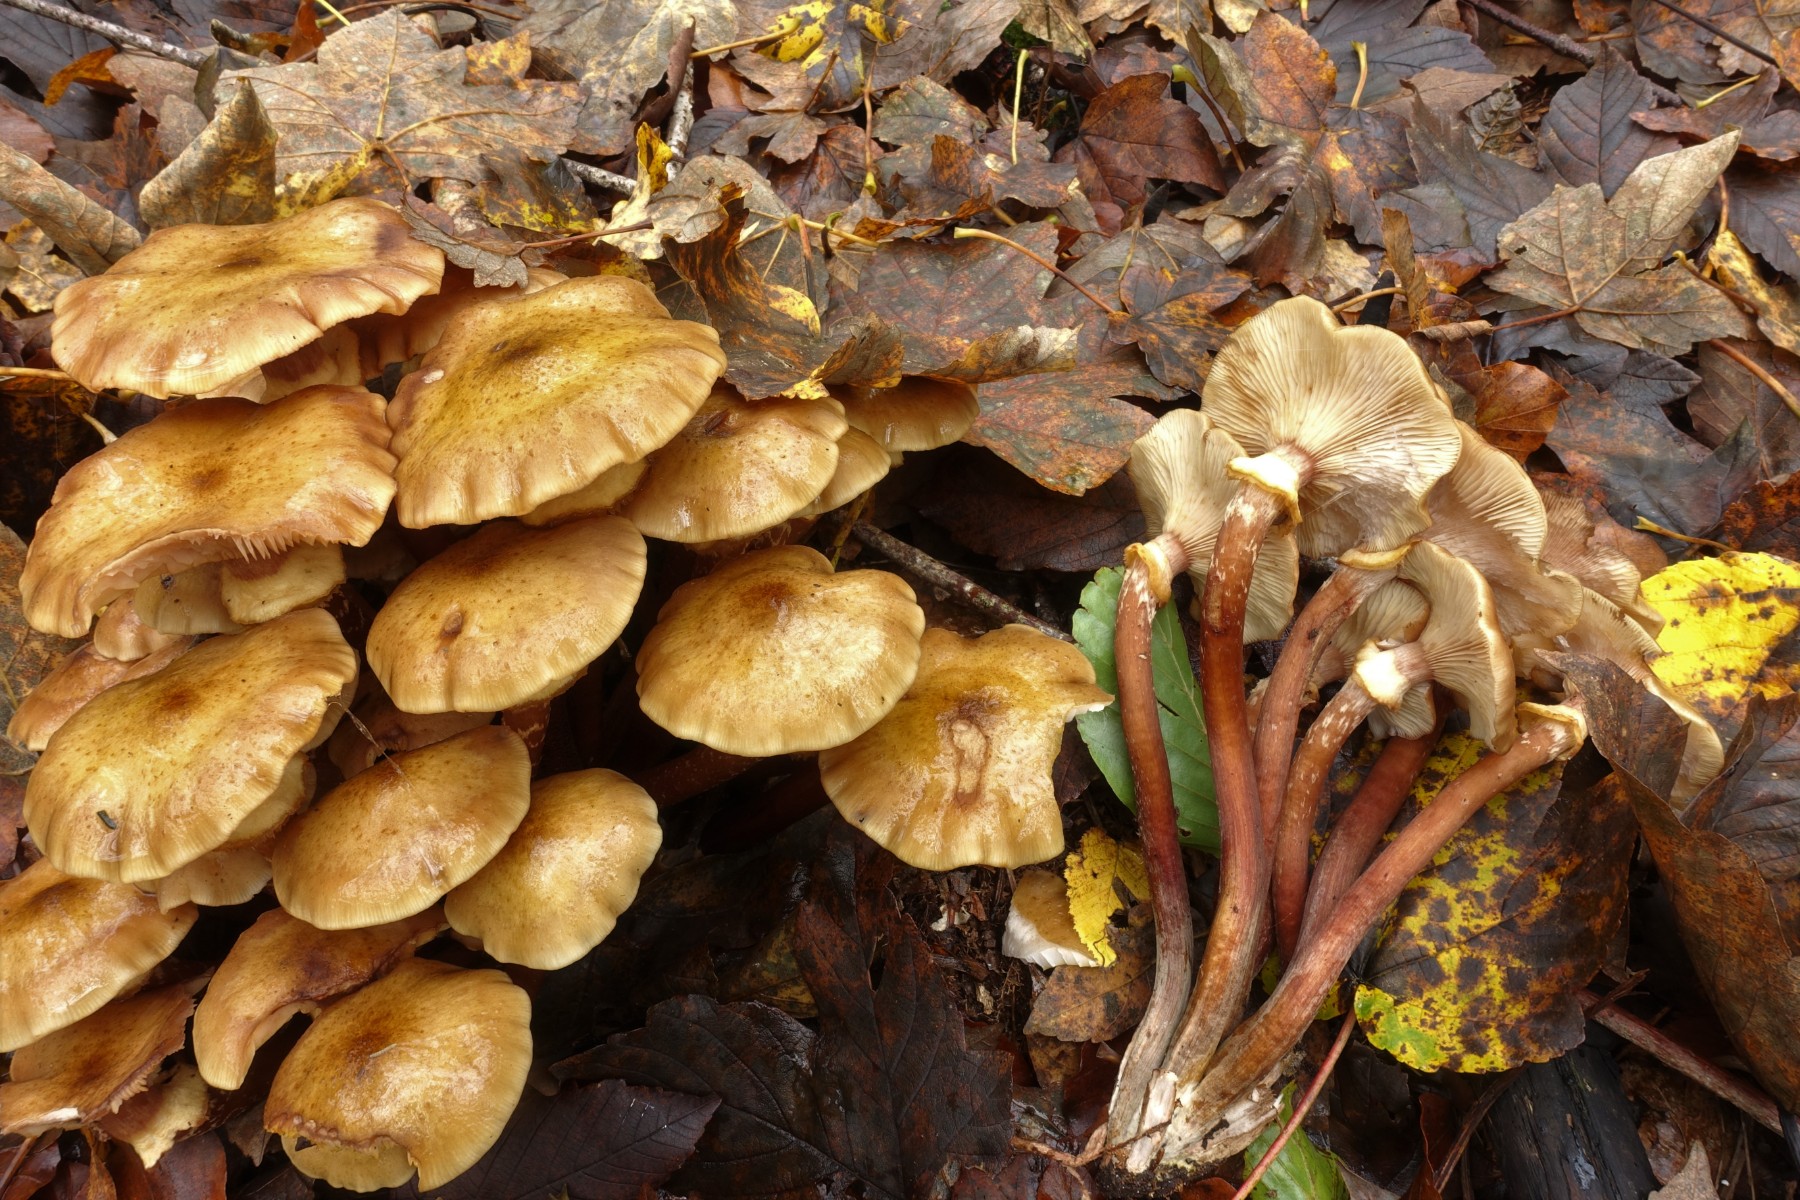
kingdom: Fungi
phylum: Basidiomycota
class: Agaricomycetes
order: Agaricales
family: Physalacriaceae
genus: Armillaria
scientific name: Armillaria mellea
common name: ægte honningsvamp
